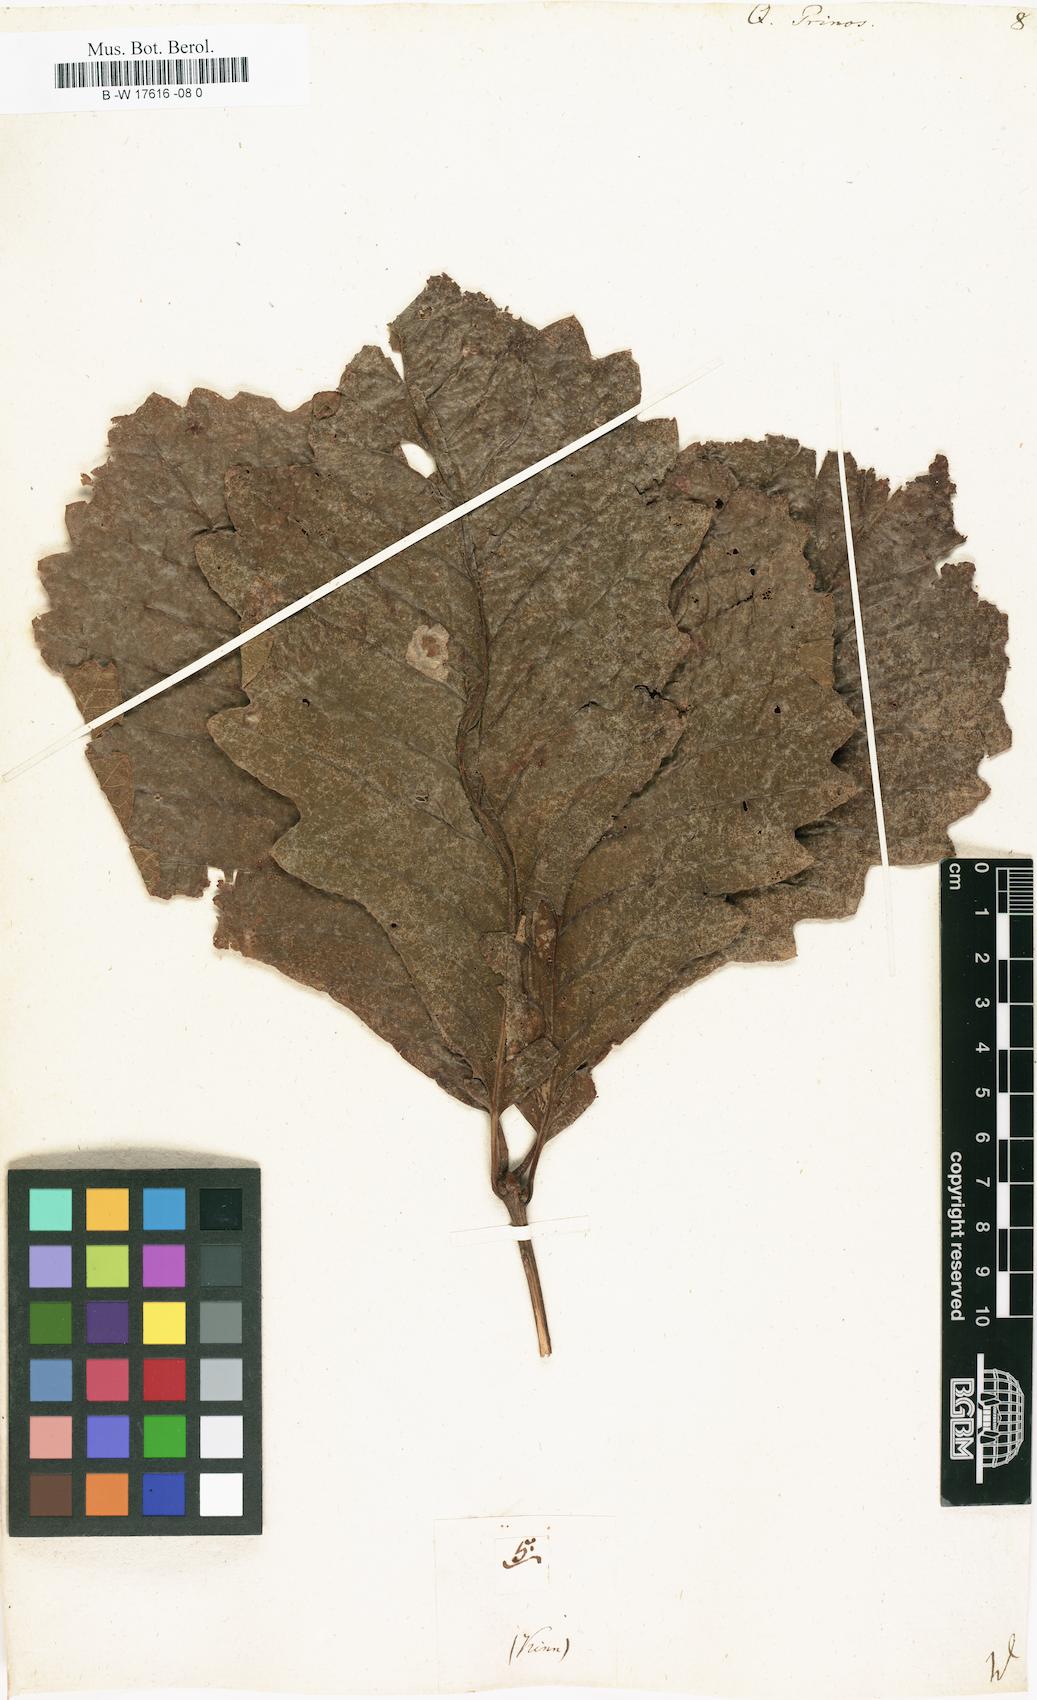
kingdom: Plantae
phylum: Tracheophyta
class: Magnoliopsida
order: Fagales
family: Fagaceae
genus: Quercus
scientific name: Quercus michauxii
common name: Swamp chestnut oak
